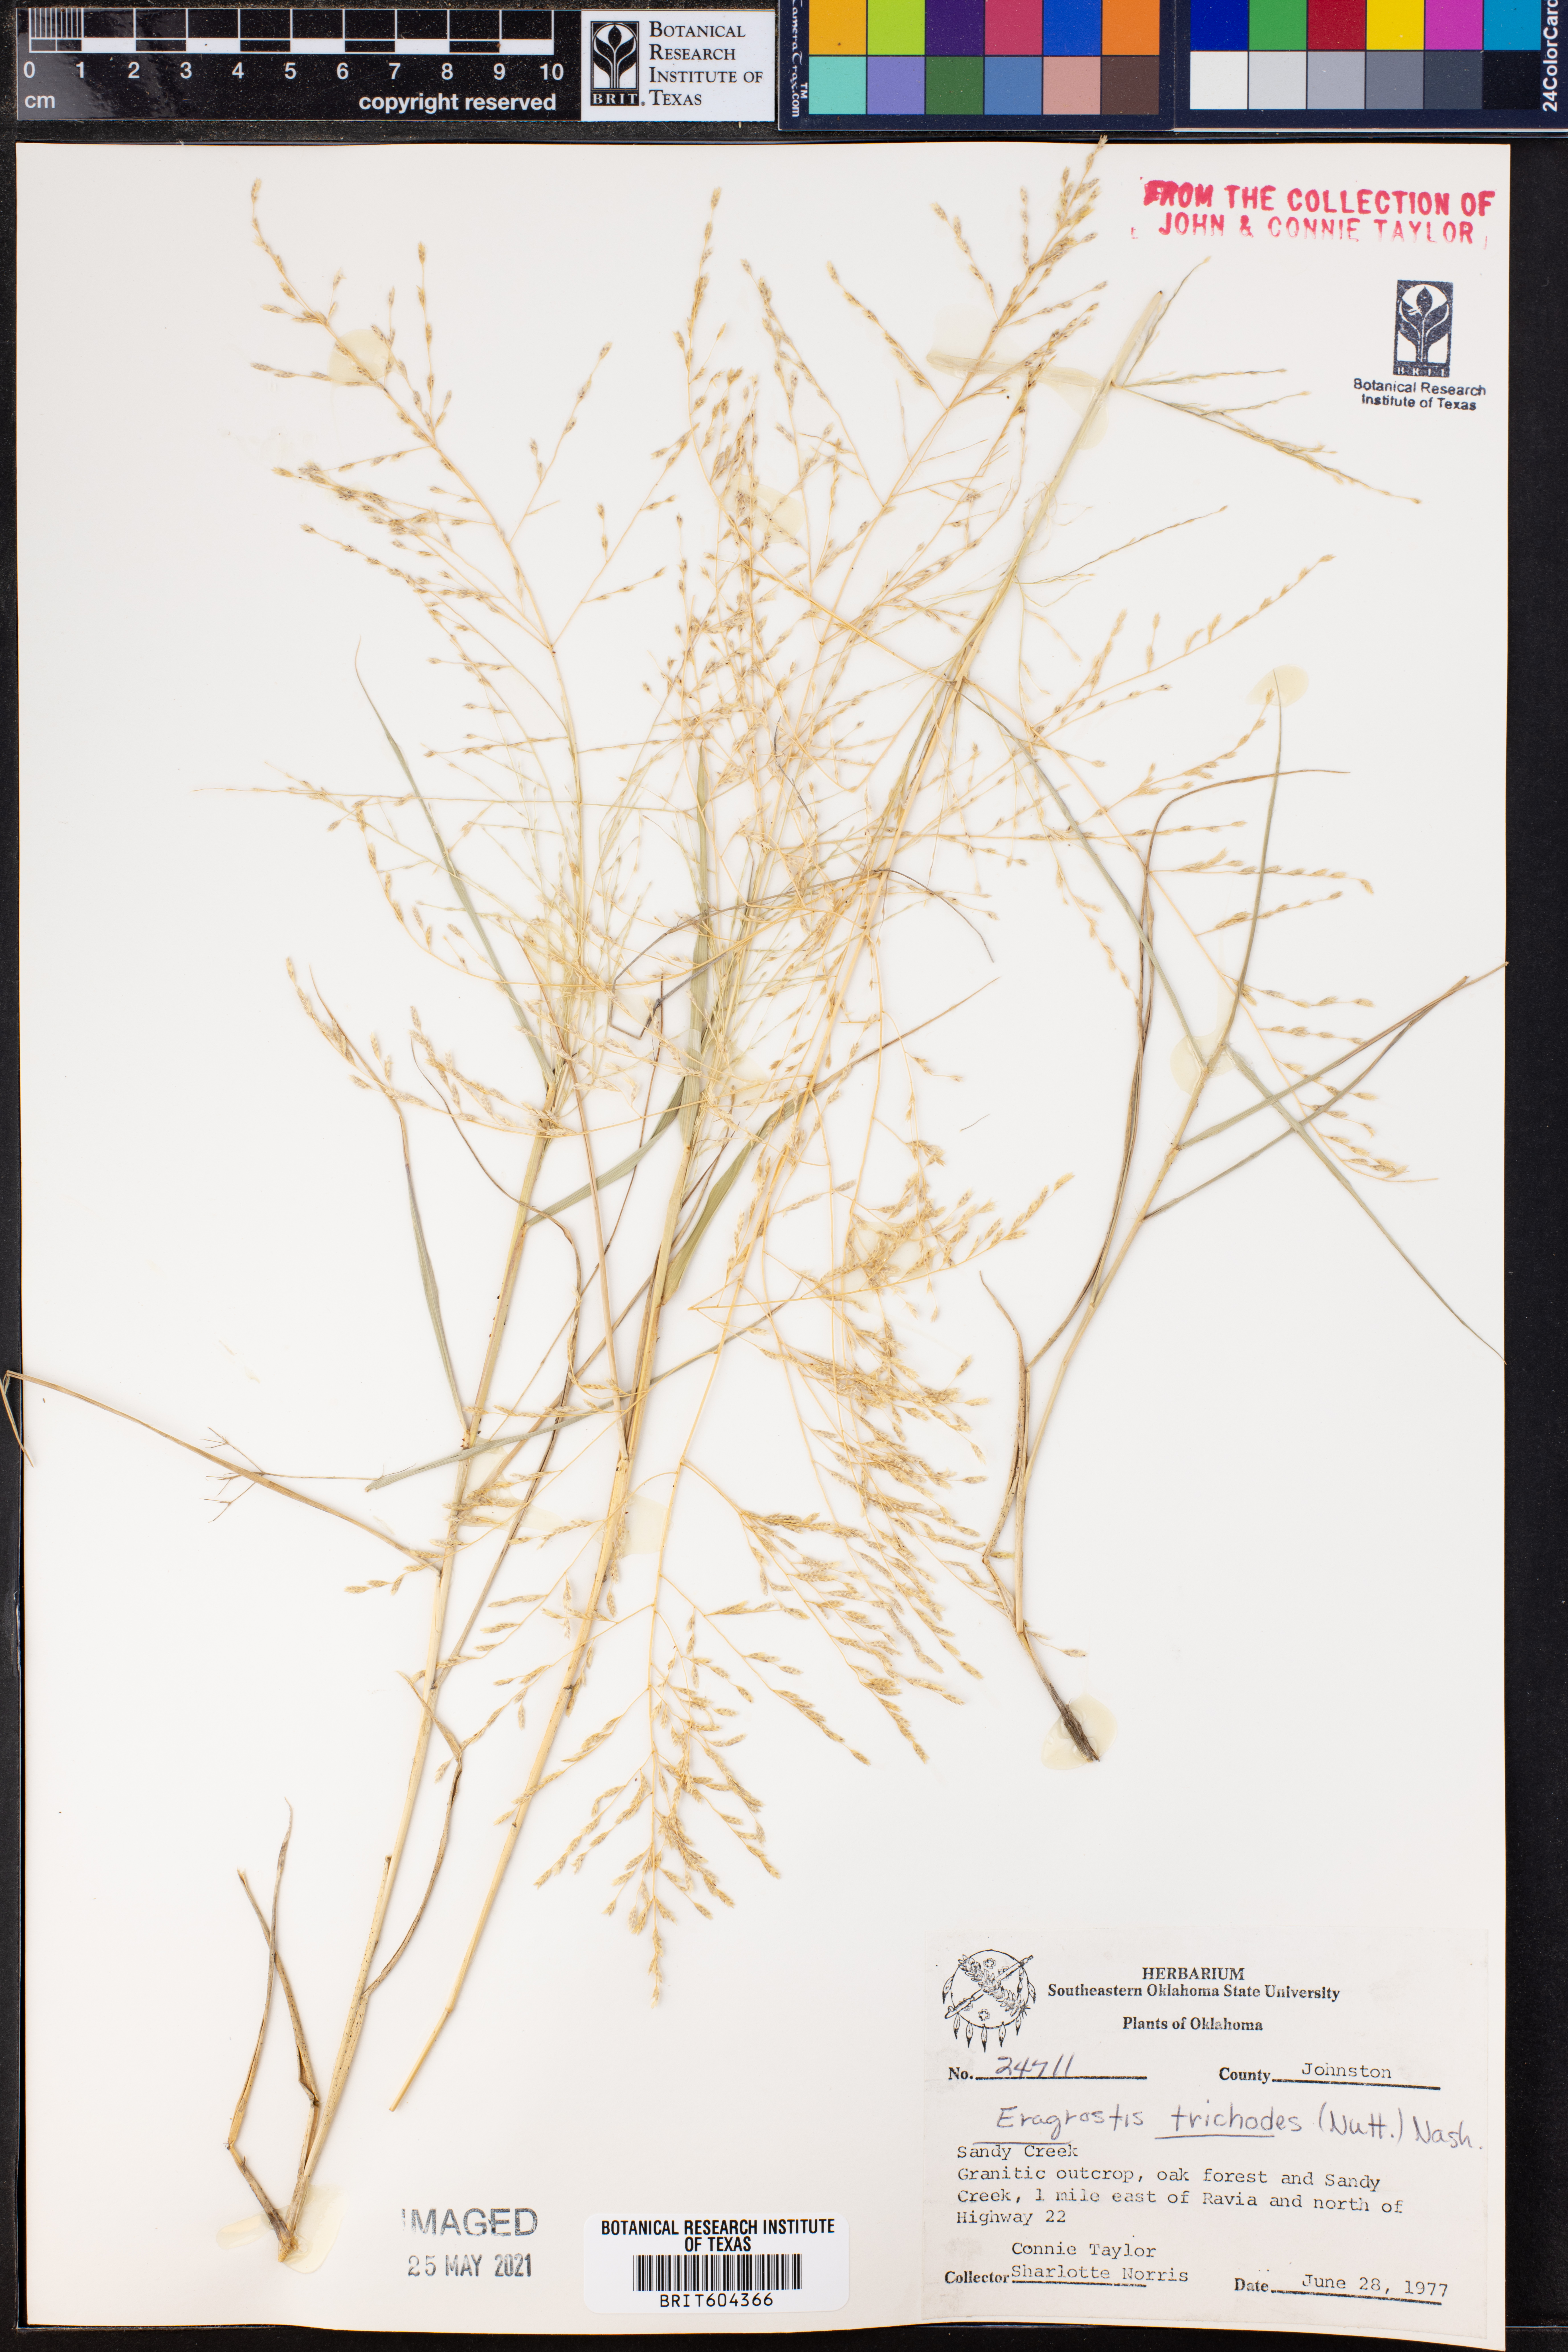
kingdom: Plantae
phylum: Tracheophyta
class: Liliopsida
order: Poales
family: Poaceae
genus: Eragrostis
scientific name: Eragrostis trichodes
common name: Sand love grass
